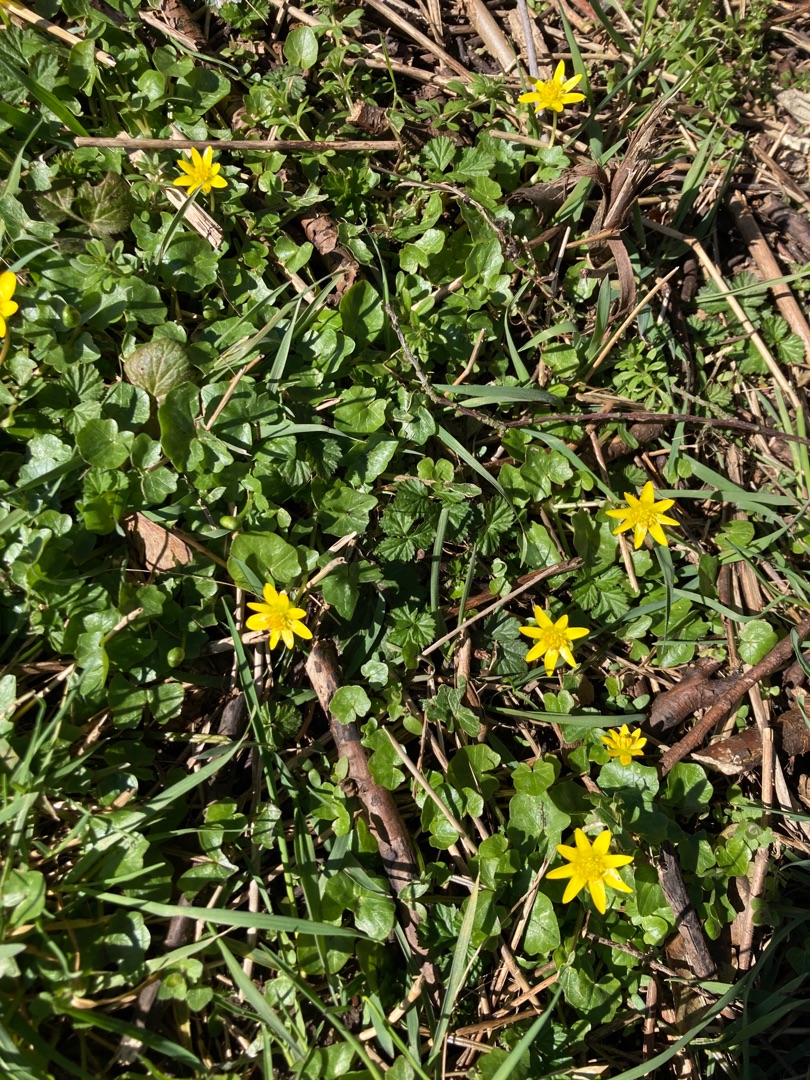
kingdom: Plantae
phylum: Tracheophyta
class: Magnoliopsida
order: Ranunculales
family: Ranunculaceae
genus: Ficaria
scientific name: Ficaria verna
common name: Vorterod
